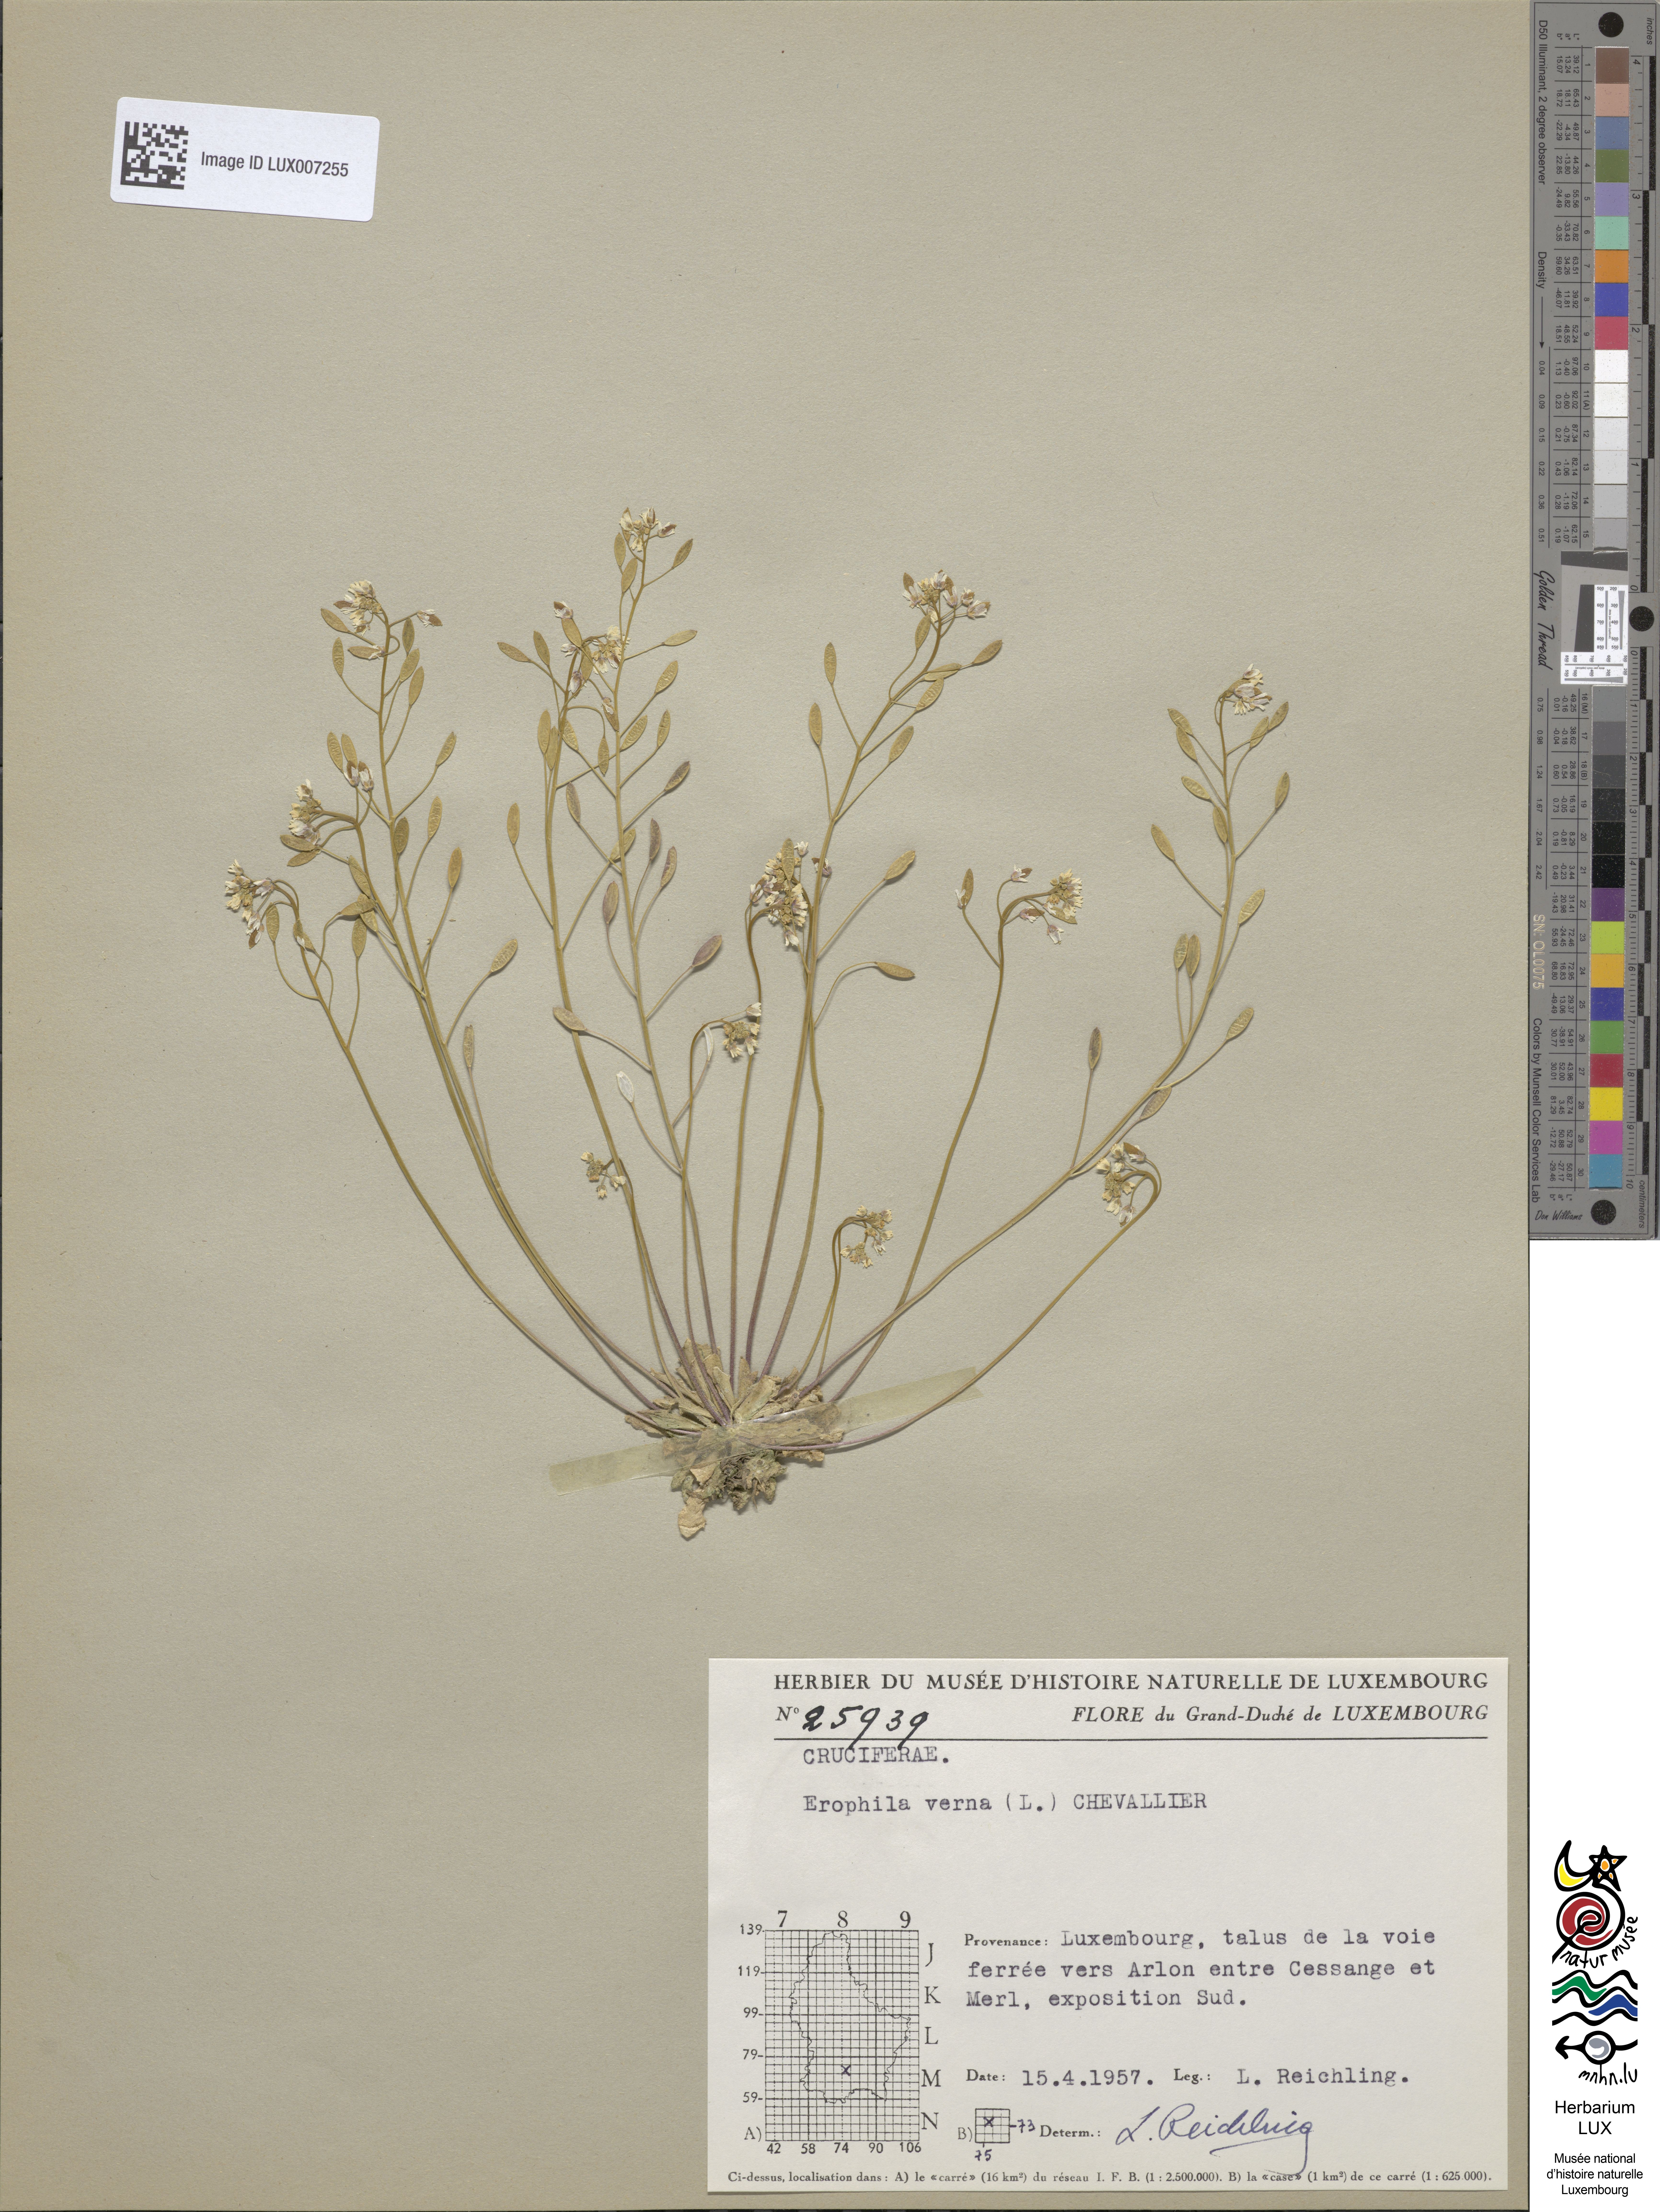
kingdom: Plantae
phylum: Tracheophyta
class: Magnoliopsida
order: Brassicales
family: Brassicaceae
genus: Draba
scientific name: Draba verna
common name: Spring draba
